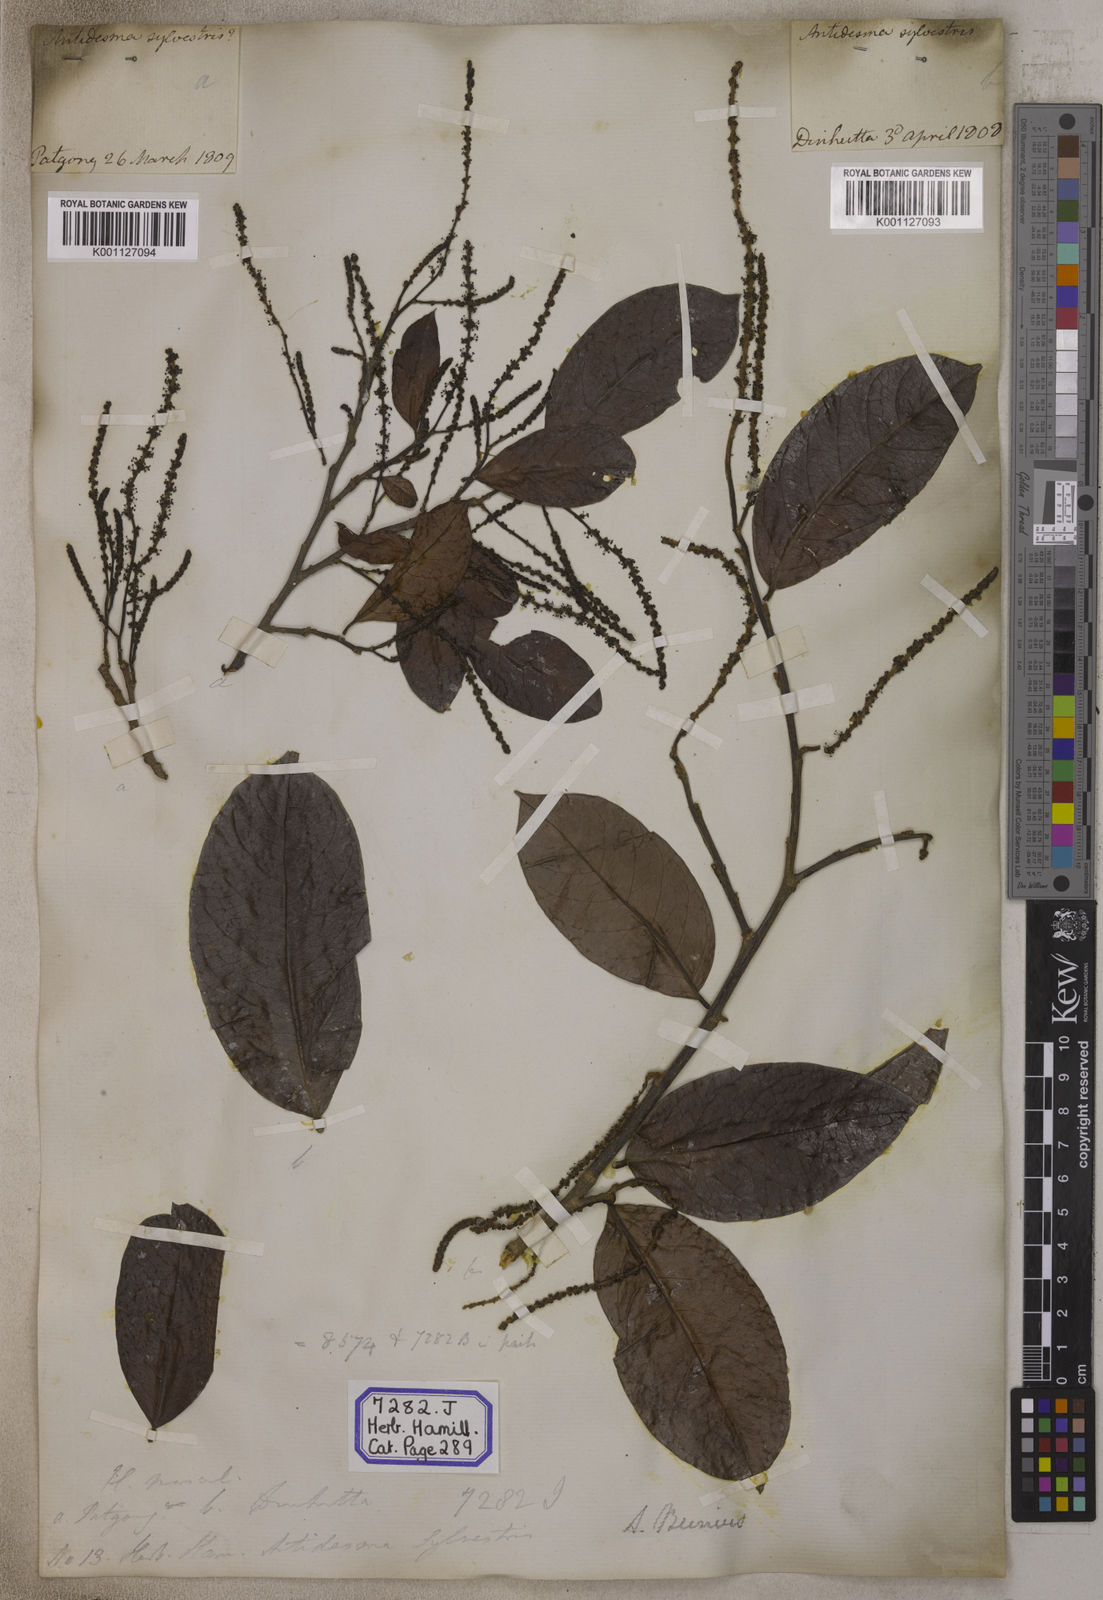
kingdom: Plantae
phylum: Tracheophyta
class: Magnoliopsida
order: Malpighiales
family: Phyllanthaceae
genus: Antidesma
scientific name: Antidesma nigricans
